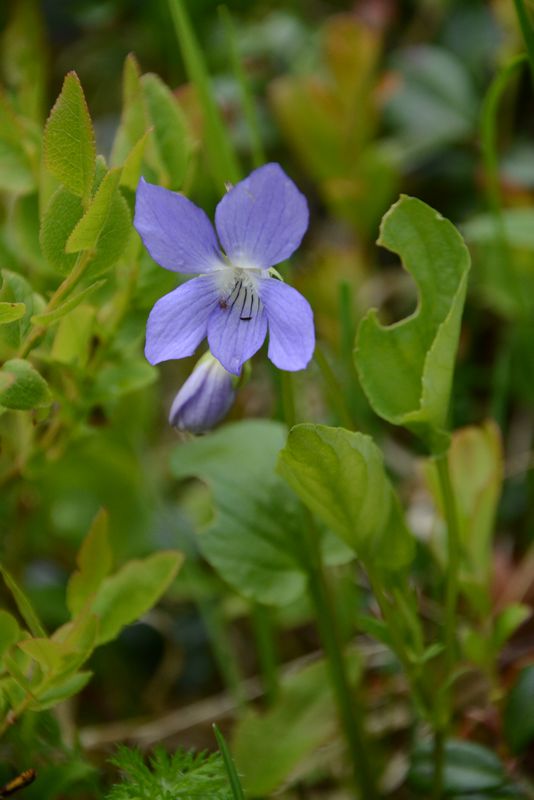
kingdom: Plantae
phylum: Tracheophyta
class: Magnoliopsida
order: Malpighiales
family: Violaceae
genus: Viola
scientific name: Viola canina
